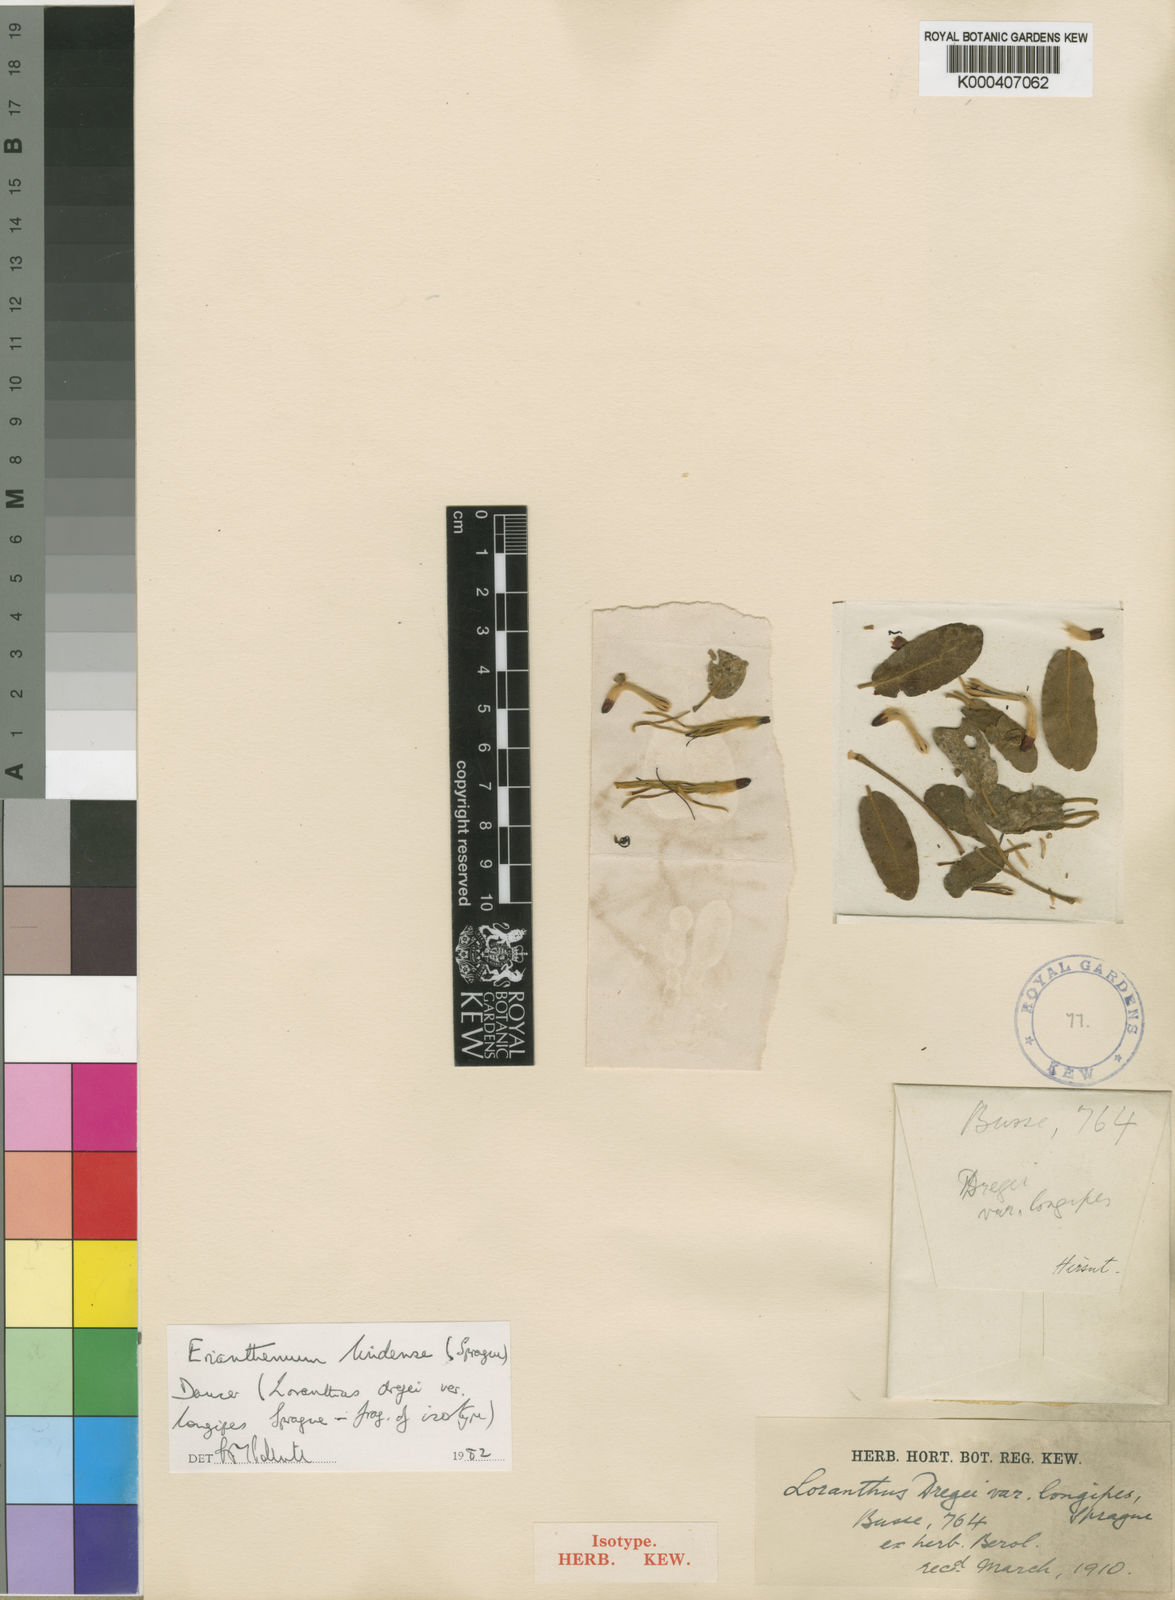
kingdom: Plantae
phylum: Tracheophyta
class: Magnoliopsida
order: Santalales
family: Loranthaceae
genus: Erianthemum
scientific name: Erianthemum lindense
